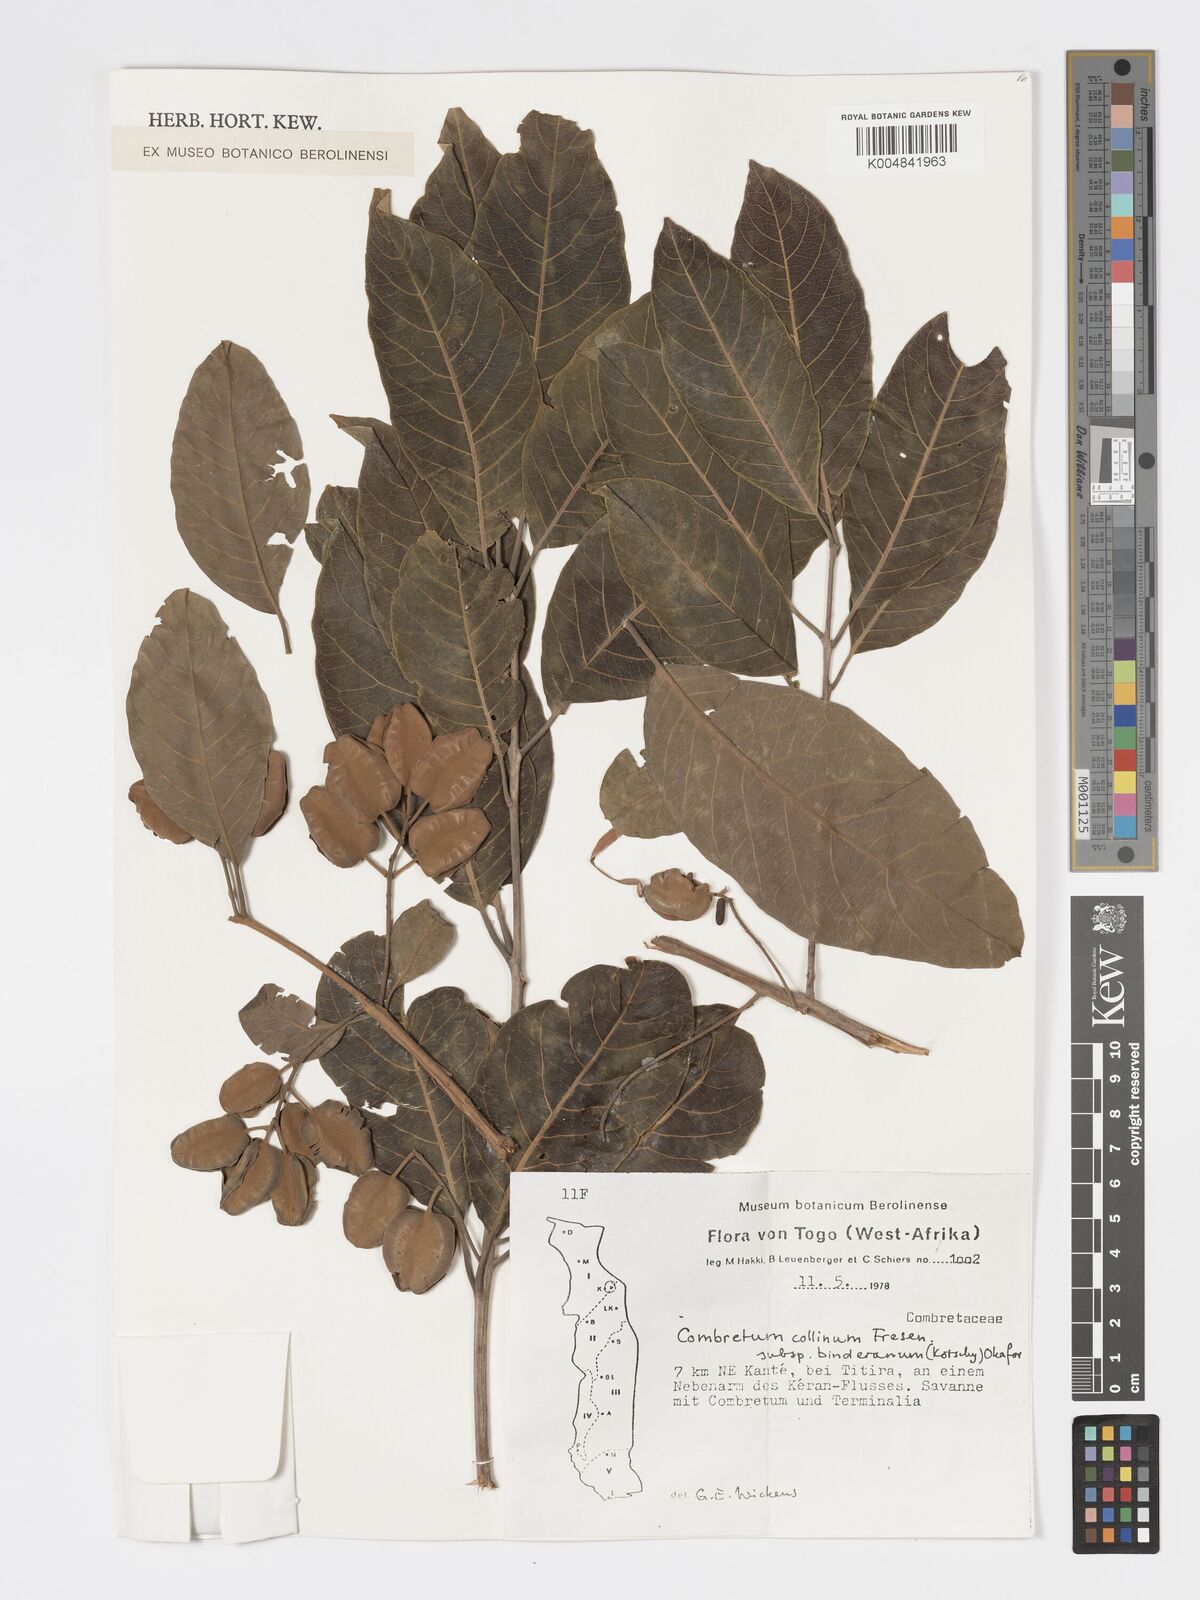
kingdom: Plantae
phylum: Tracheophyta
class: Magnoliopsida
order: Myrtales
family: Combretaceae
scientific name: Combretaceae
